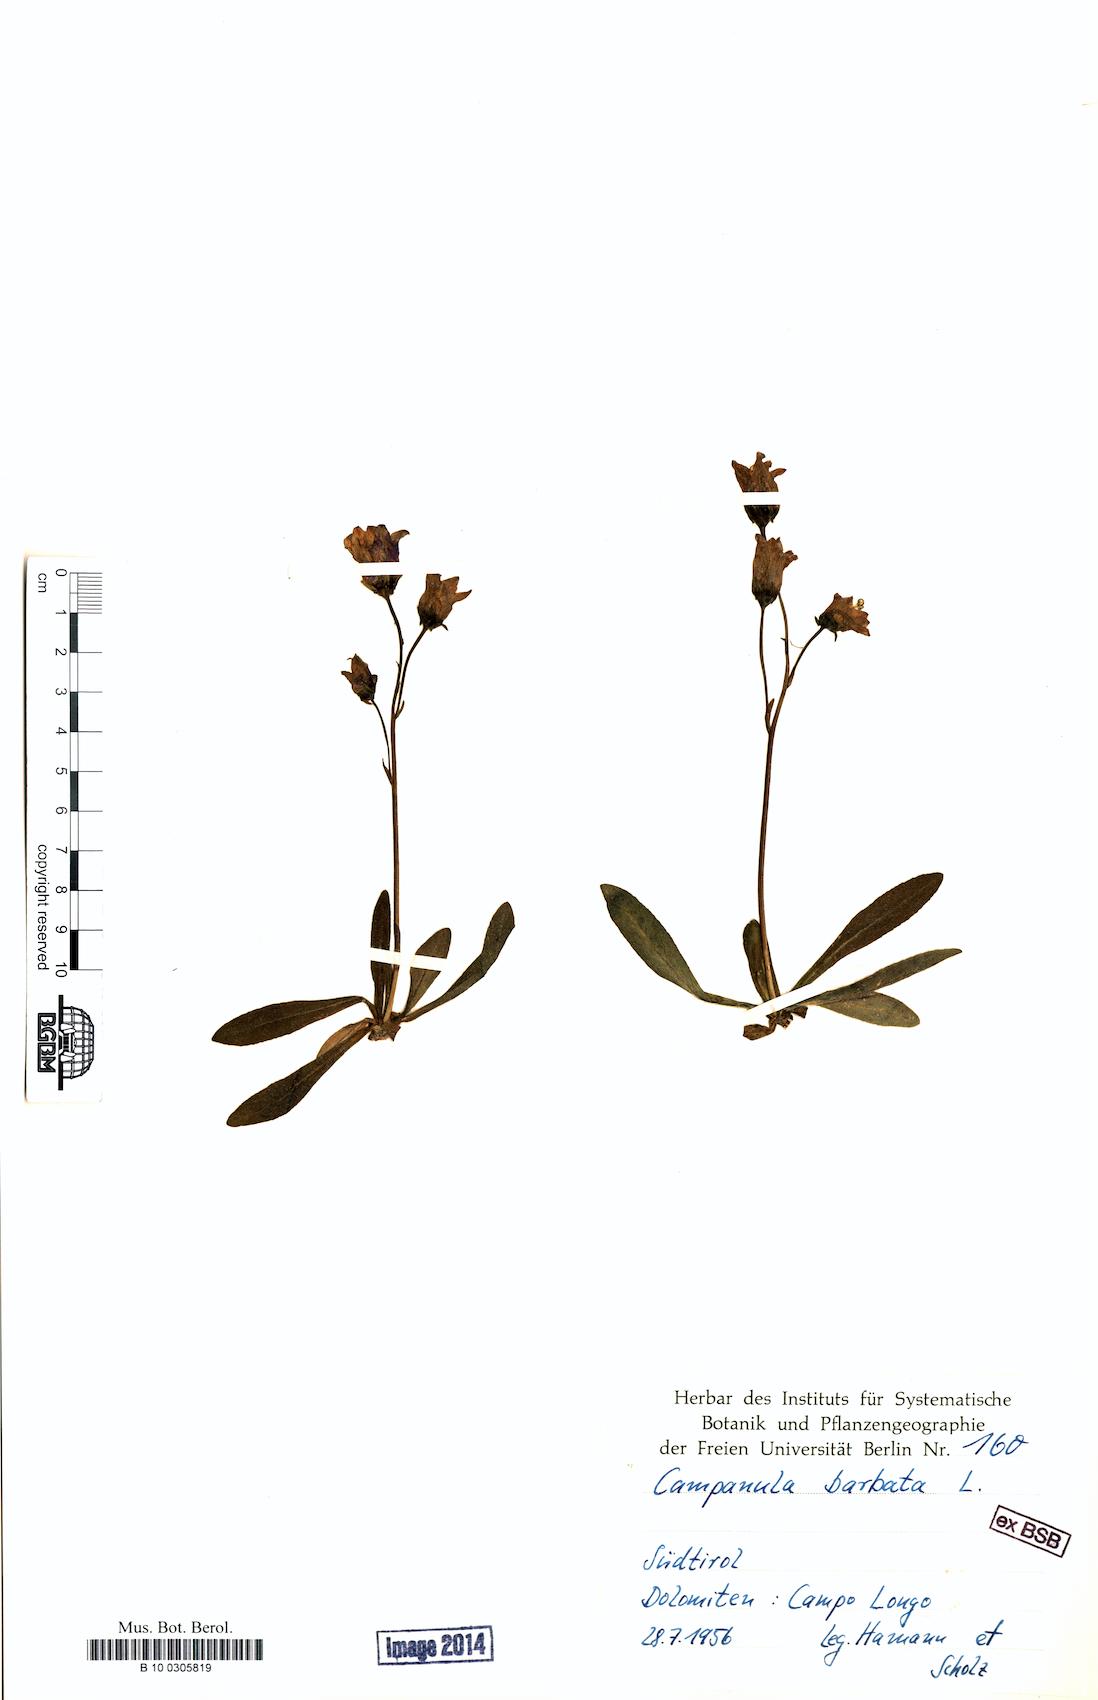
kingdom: Plantae
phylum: Tracheophyta
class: Magnoliopsida
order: Asterales
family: Campanulaceae
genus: Campanula
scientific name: Campanula barbata
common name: Bearded bellflower
